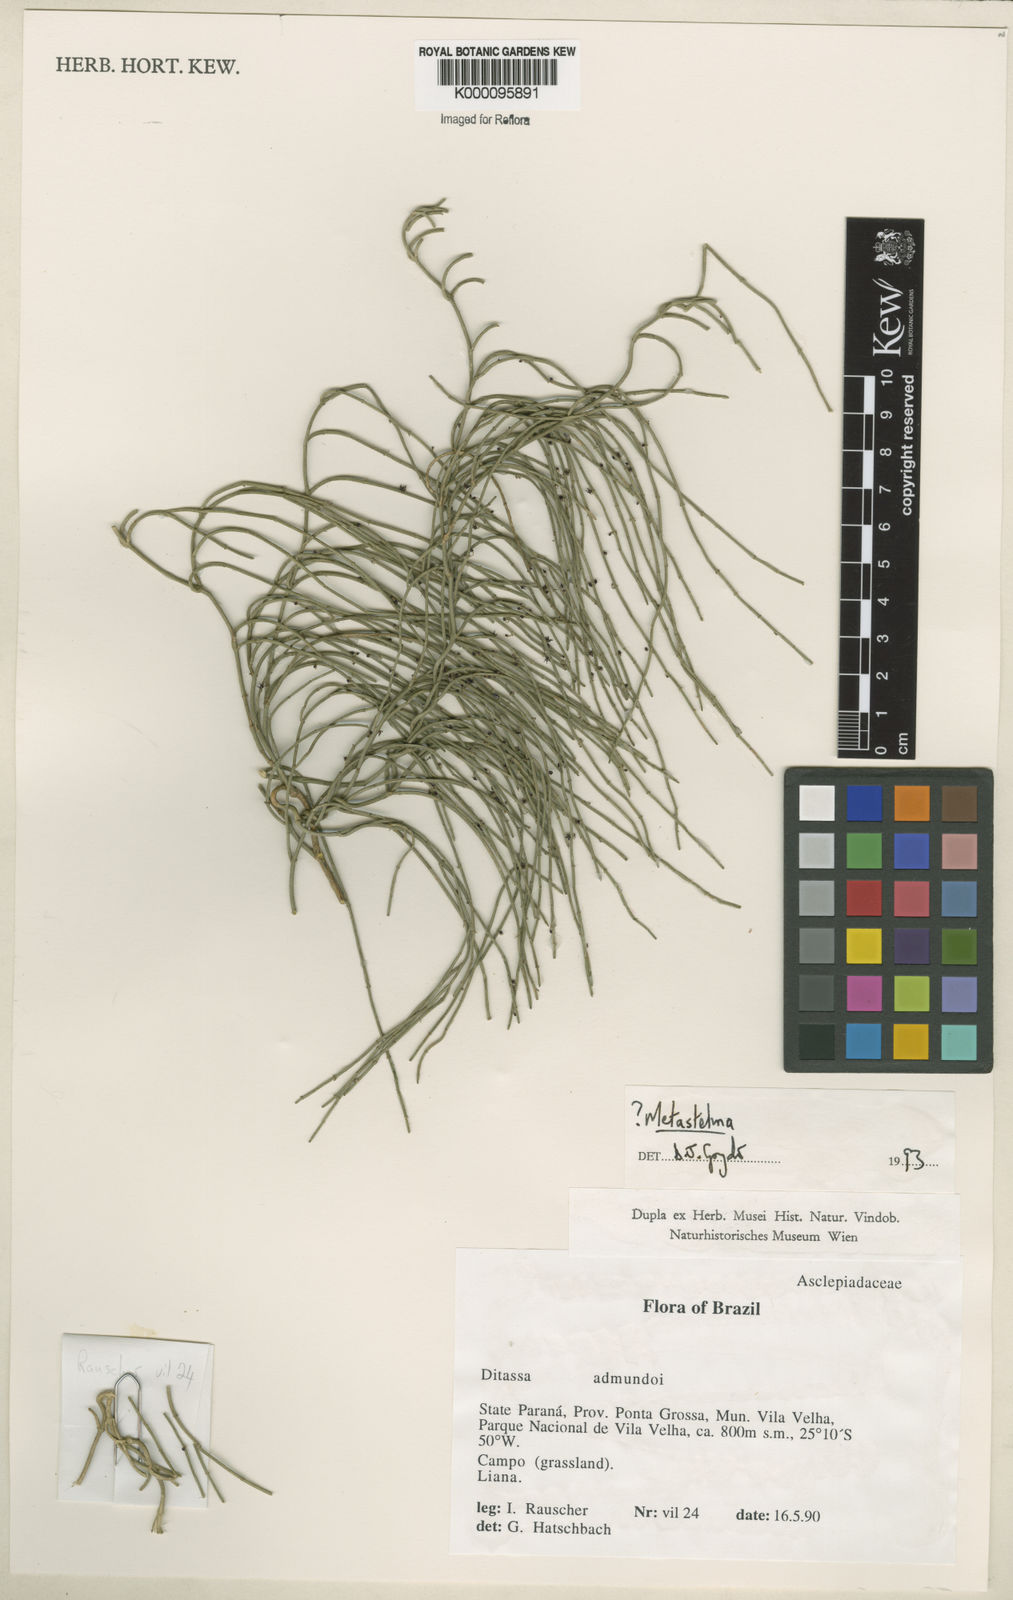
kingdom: Plantae
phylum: Tracheophyta
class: Magnoliopsida
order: Gentianales
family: Apocynaceae
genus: Orthosia
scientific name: Orthosia scoparia
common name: Leafless swallow-wort
